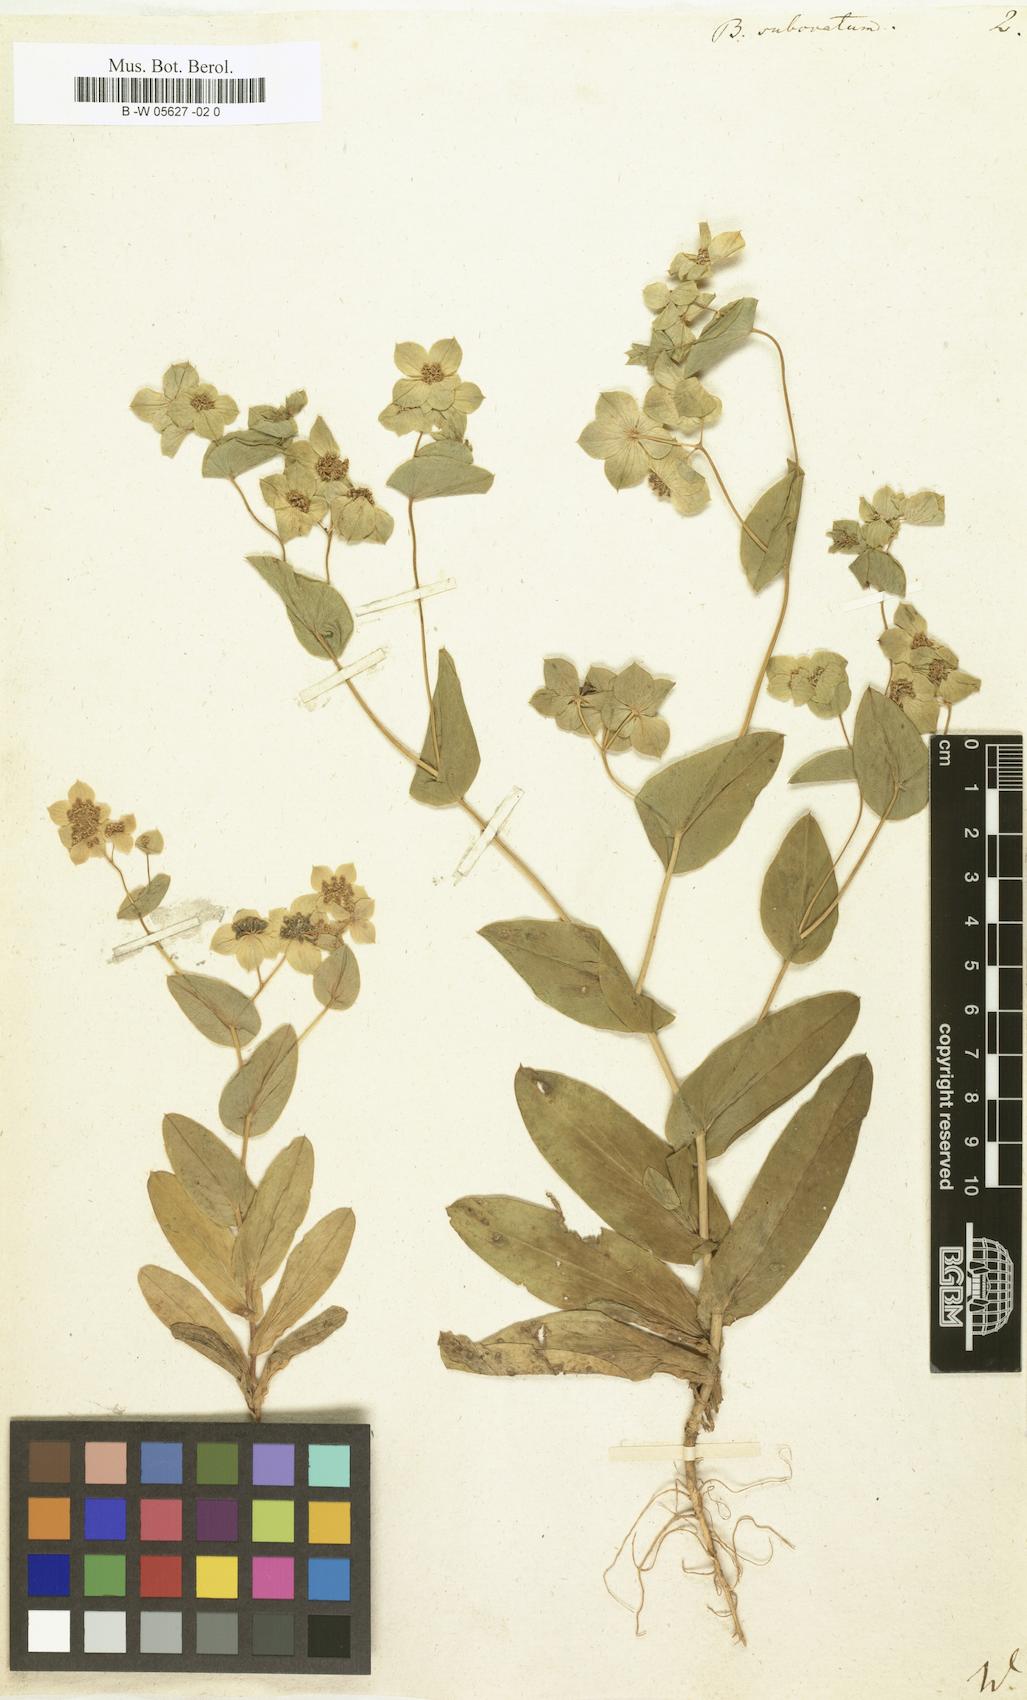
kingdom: Plantae
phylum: Tracheophyta
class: Magnoliopsida
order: Apiales
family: Apiaceae
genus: Bupleurum
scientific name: Bupleurum subovatum
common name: False thorow-wax
